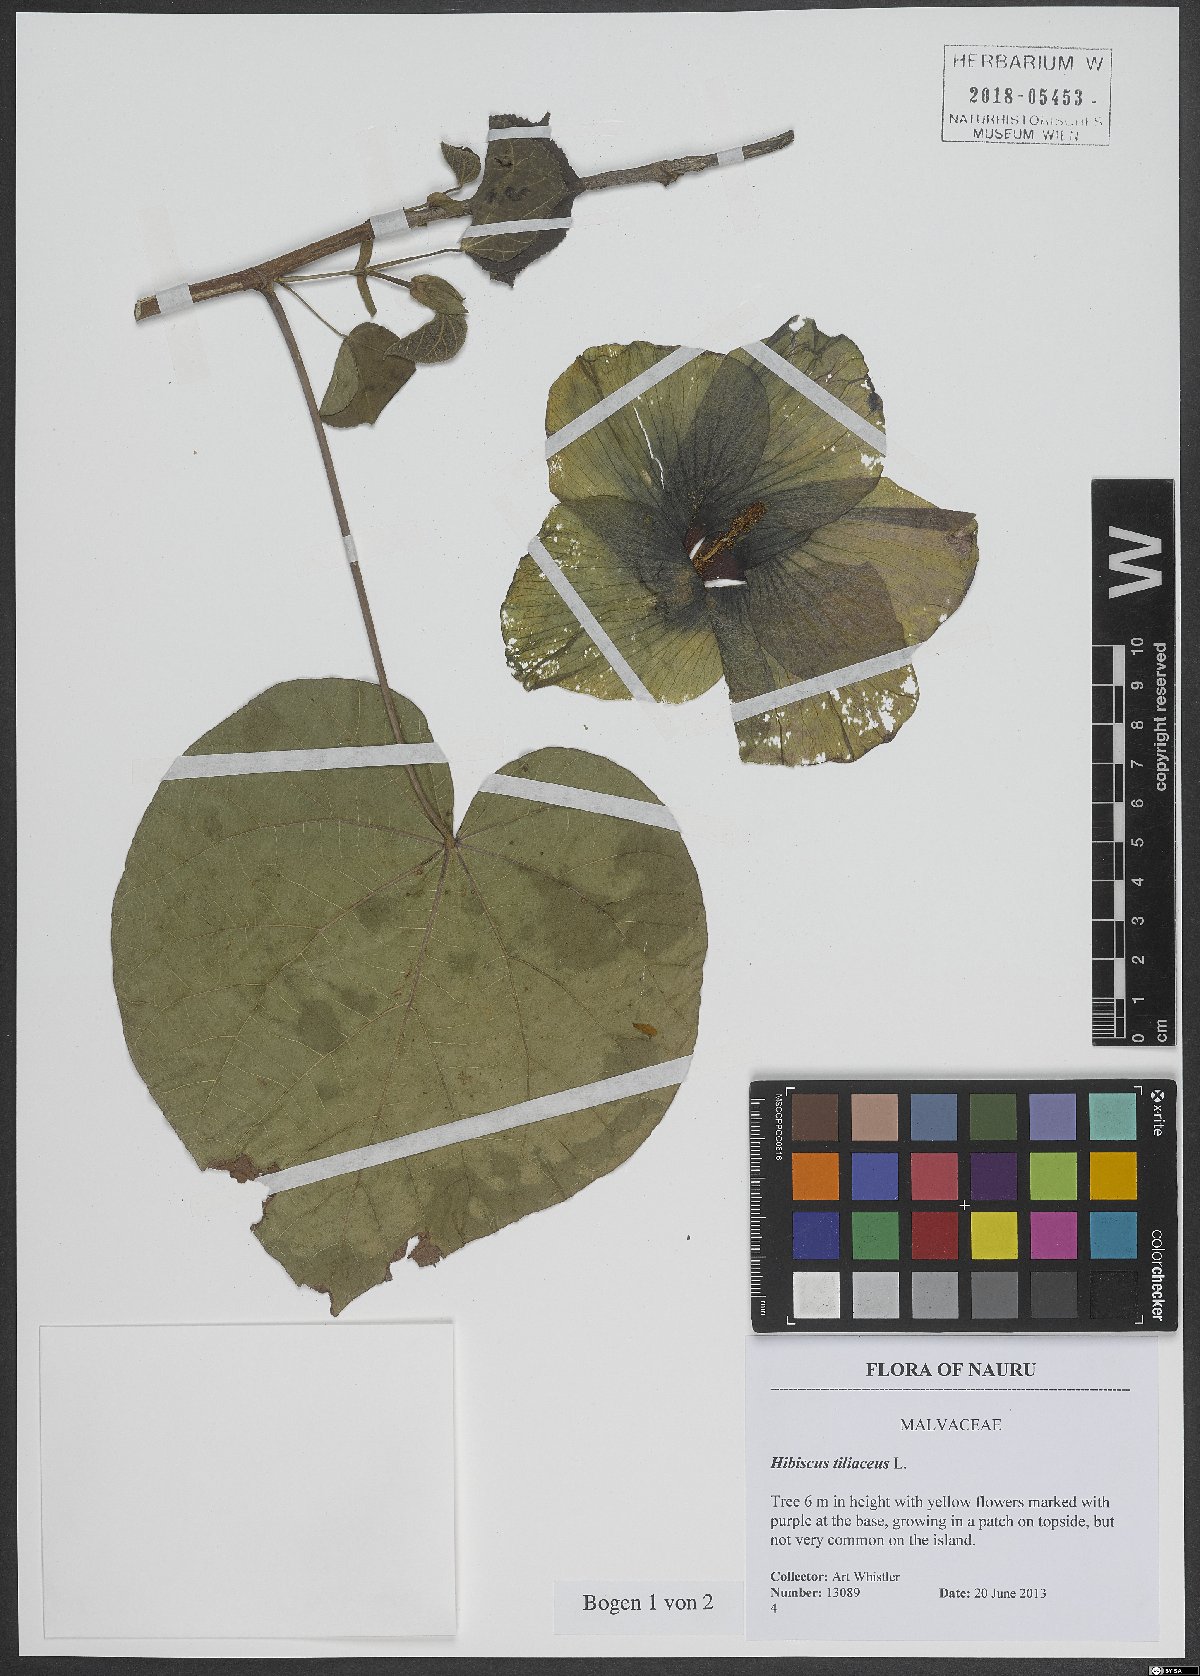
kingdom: Plantae
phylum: Tracheophyta
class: Magnoliopsida
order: Malvales
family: Malvaceae
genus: Talipariti
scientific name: Talipariti tiliaceum
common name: Sea hibiscus
